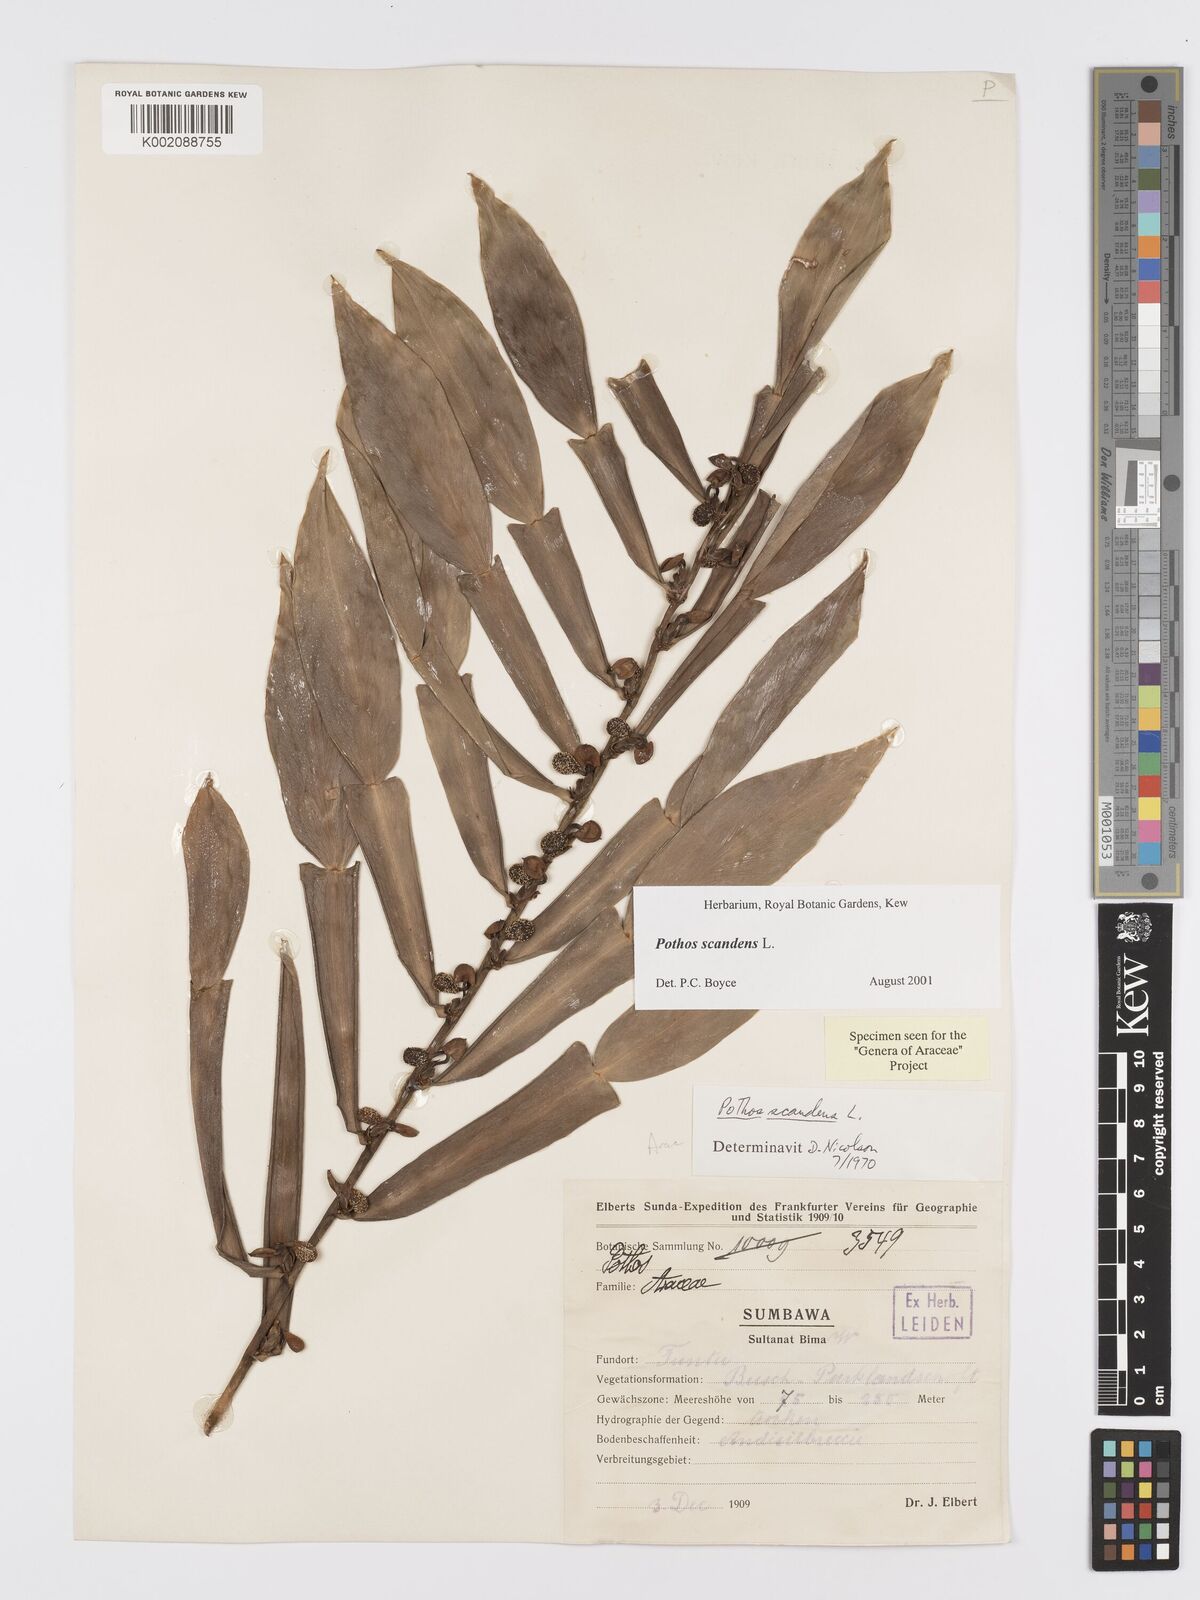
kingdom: Plantae
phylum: Tracheophyta
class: Liliopsida
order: Alismatales
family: Araceae
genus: Pothos
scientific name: Pothos scandens
